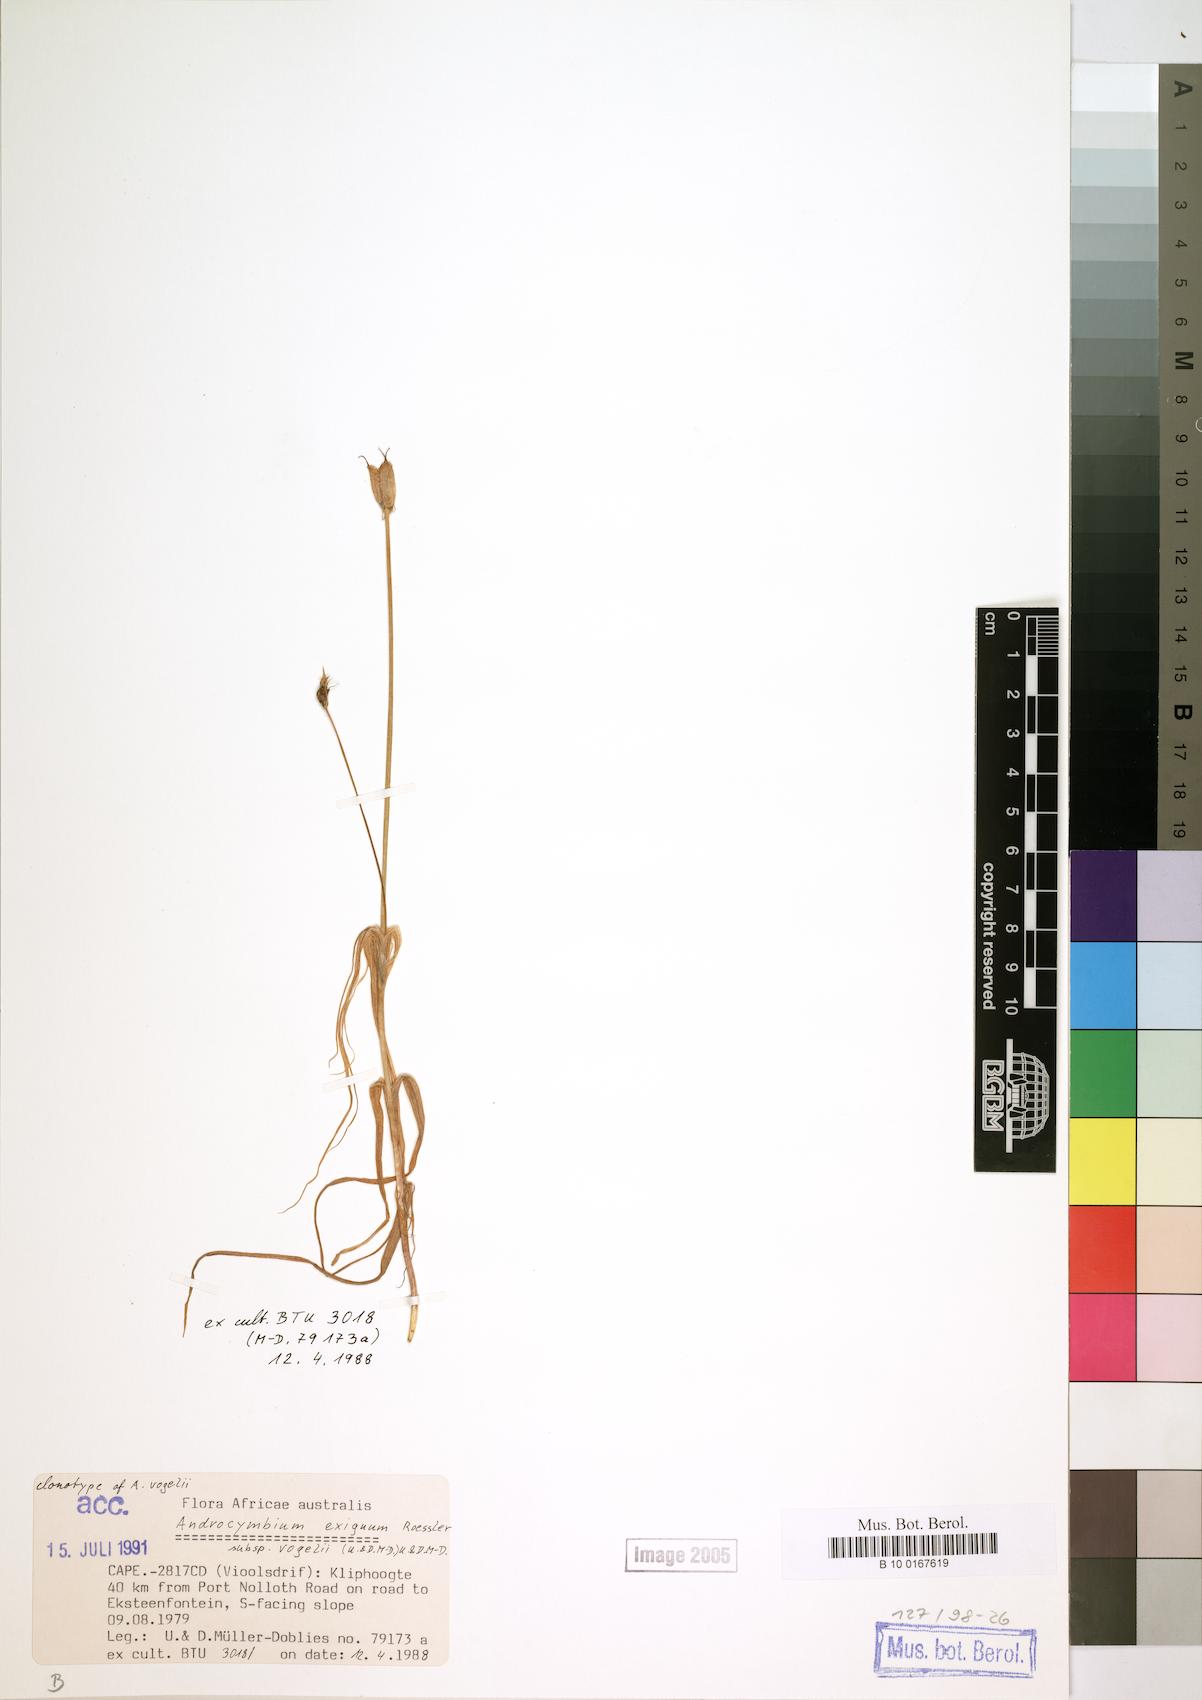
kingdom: Plantae
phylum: Tracheophyta
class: Liliopsida
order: Liliales
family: Colchicaceae
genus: Colchicum
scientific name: Colchicum exiguum
